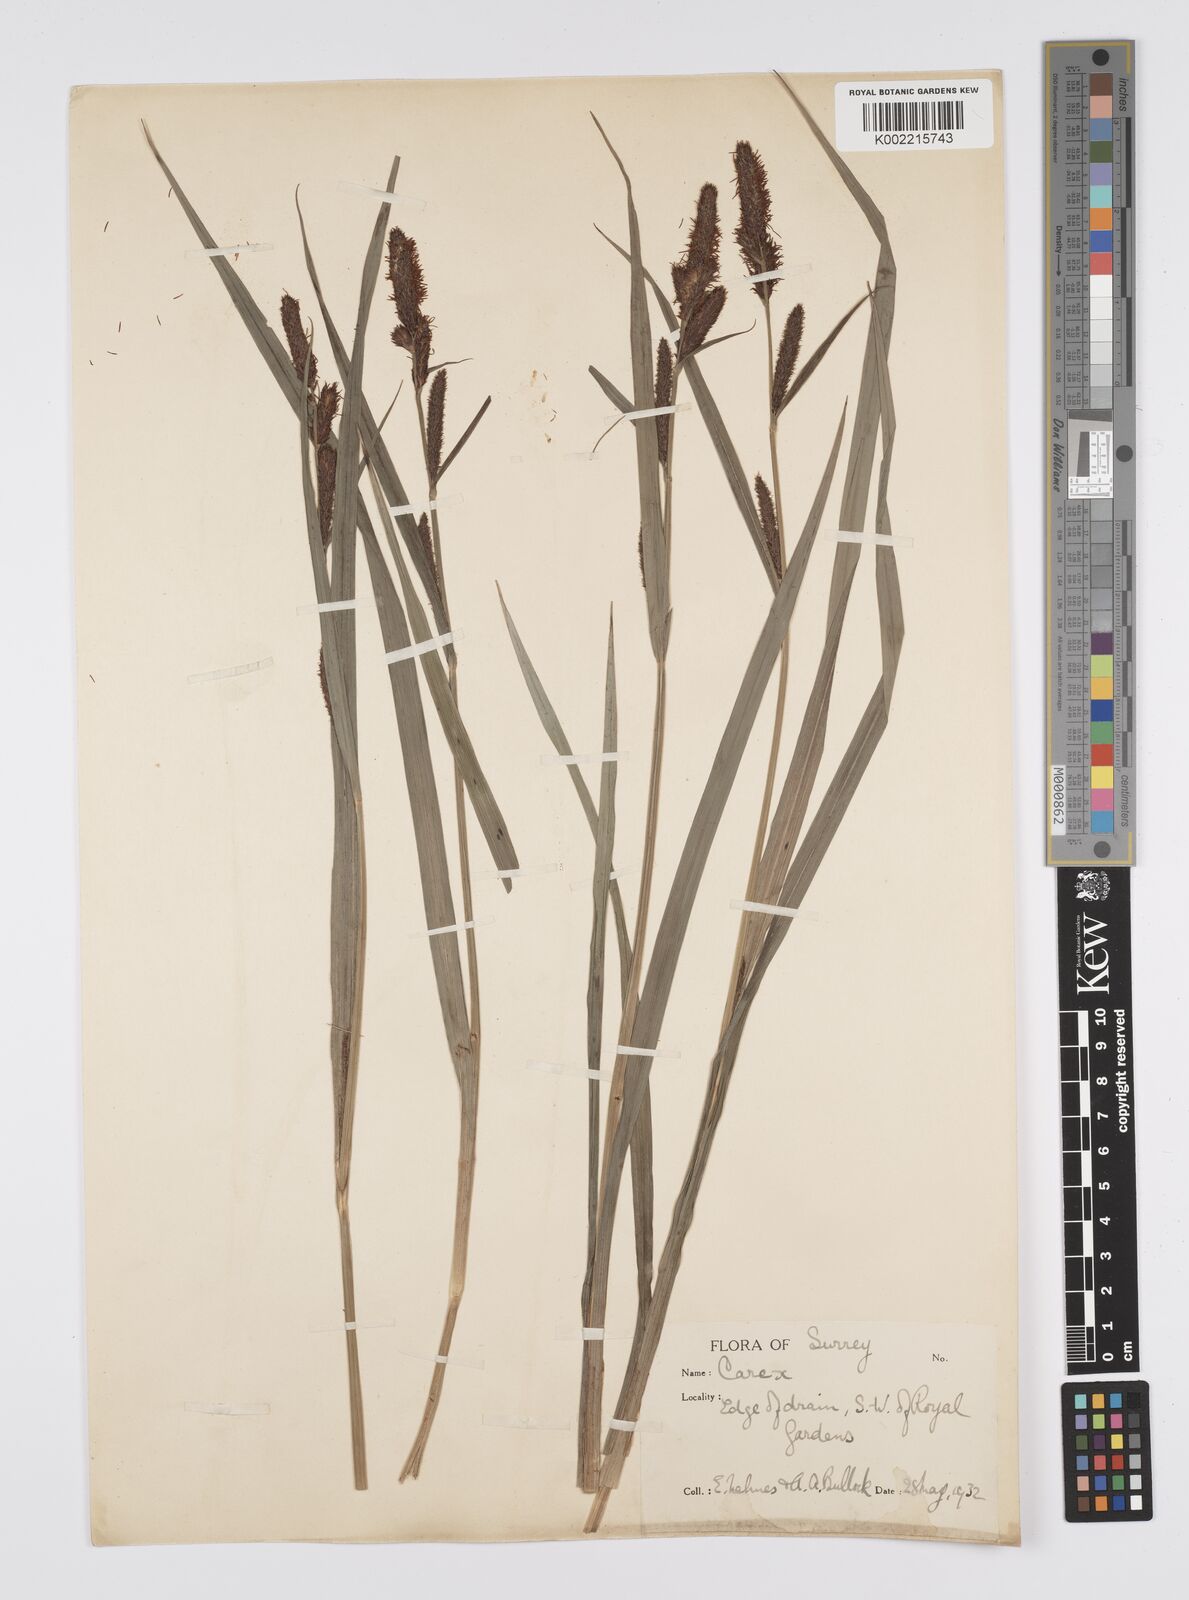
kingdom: Plantae
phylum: Tracheophyta
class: Liliopsida
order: Poales
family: Cyperaceae
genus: Carex
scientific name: Carex
